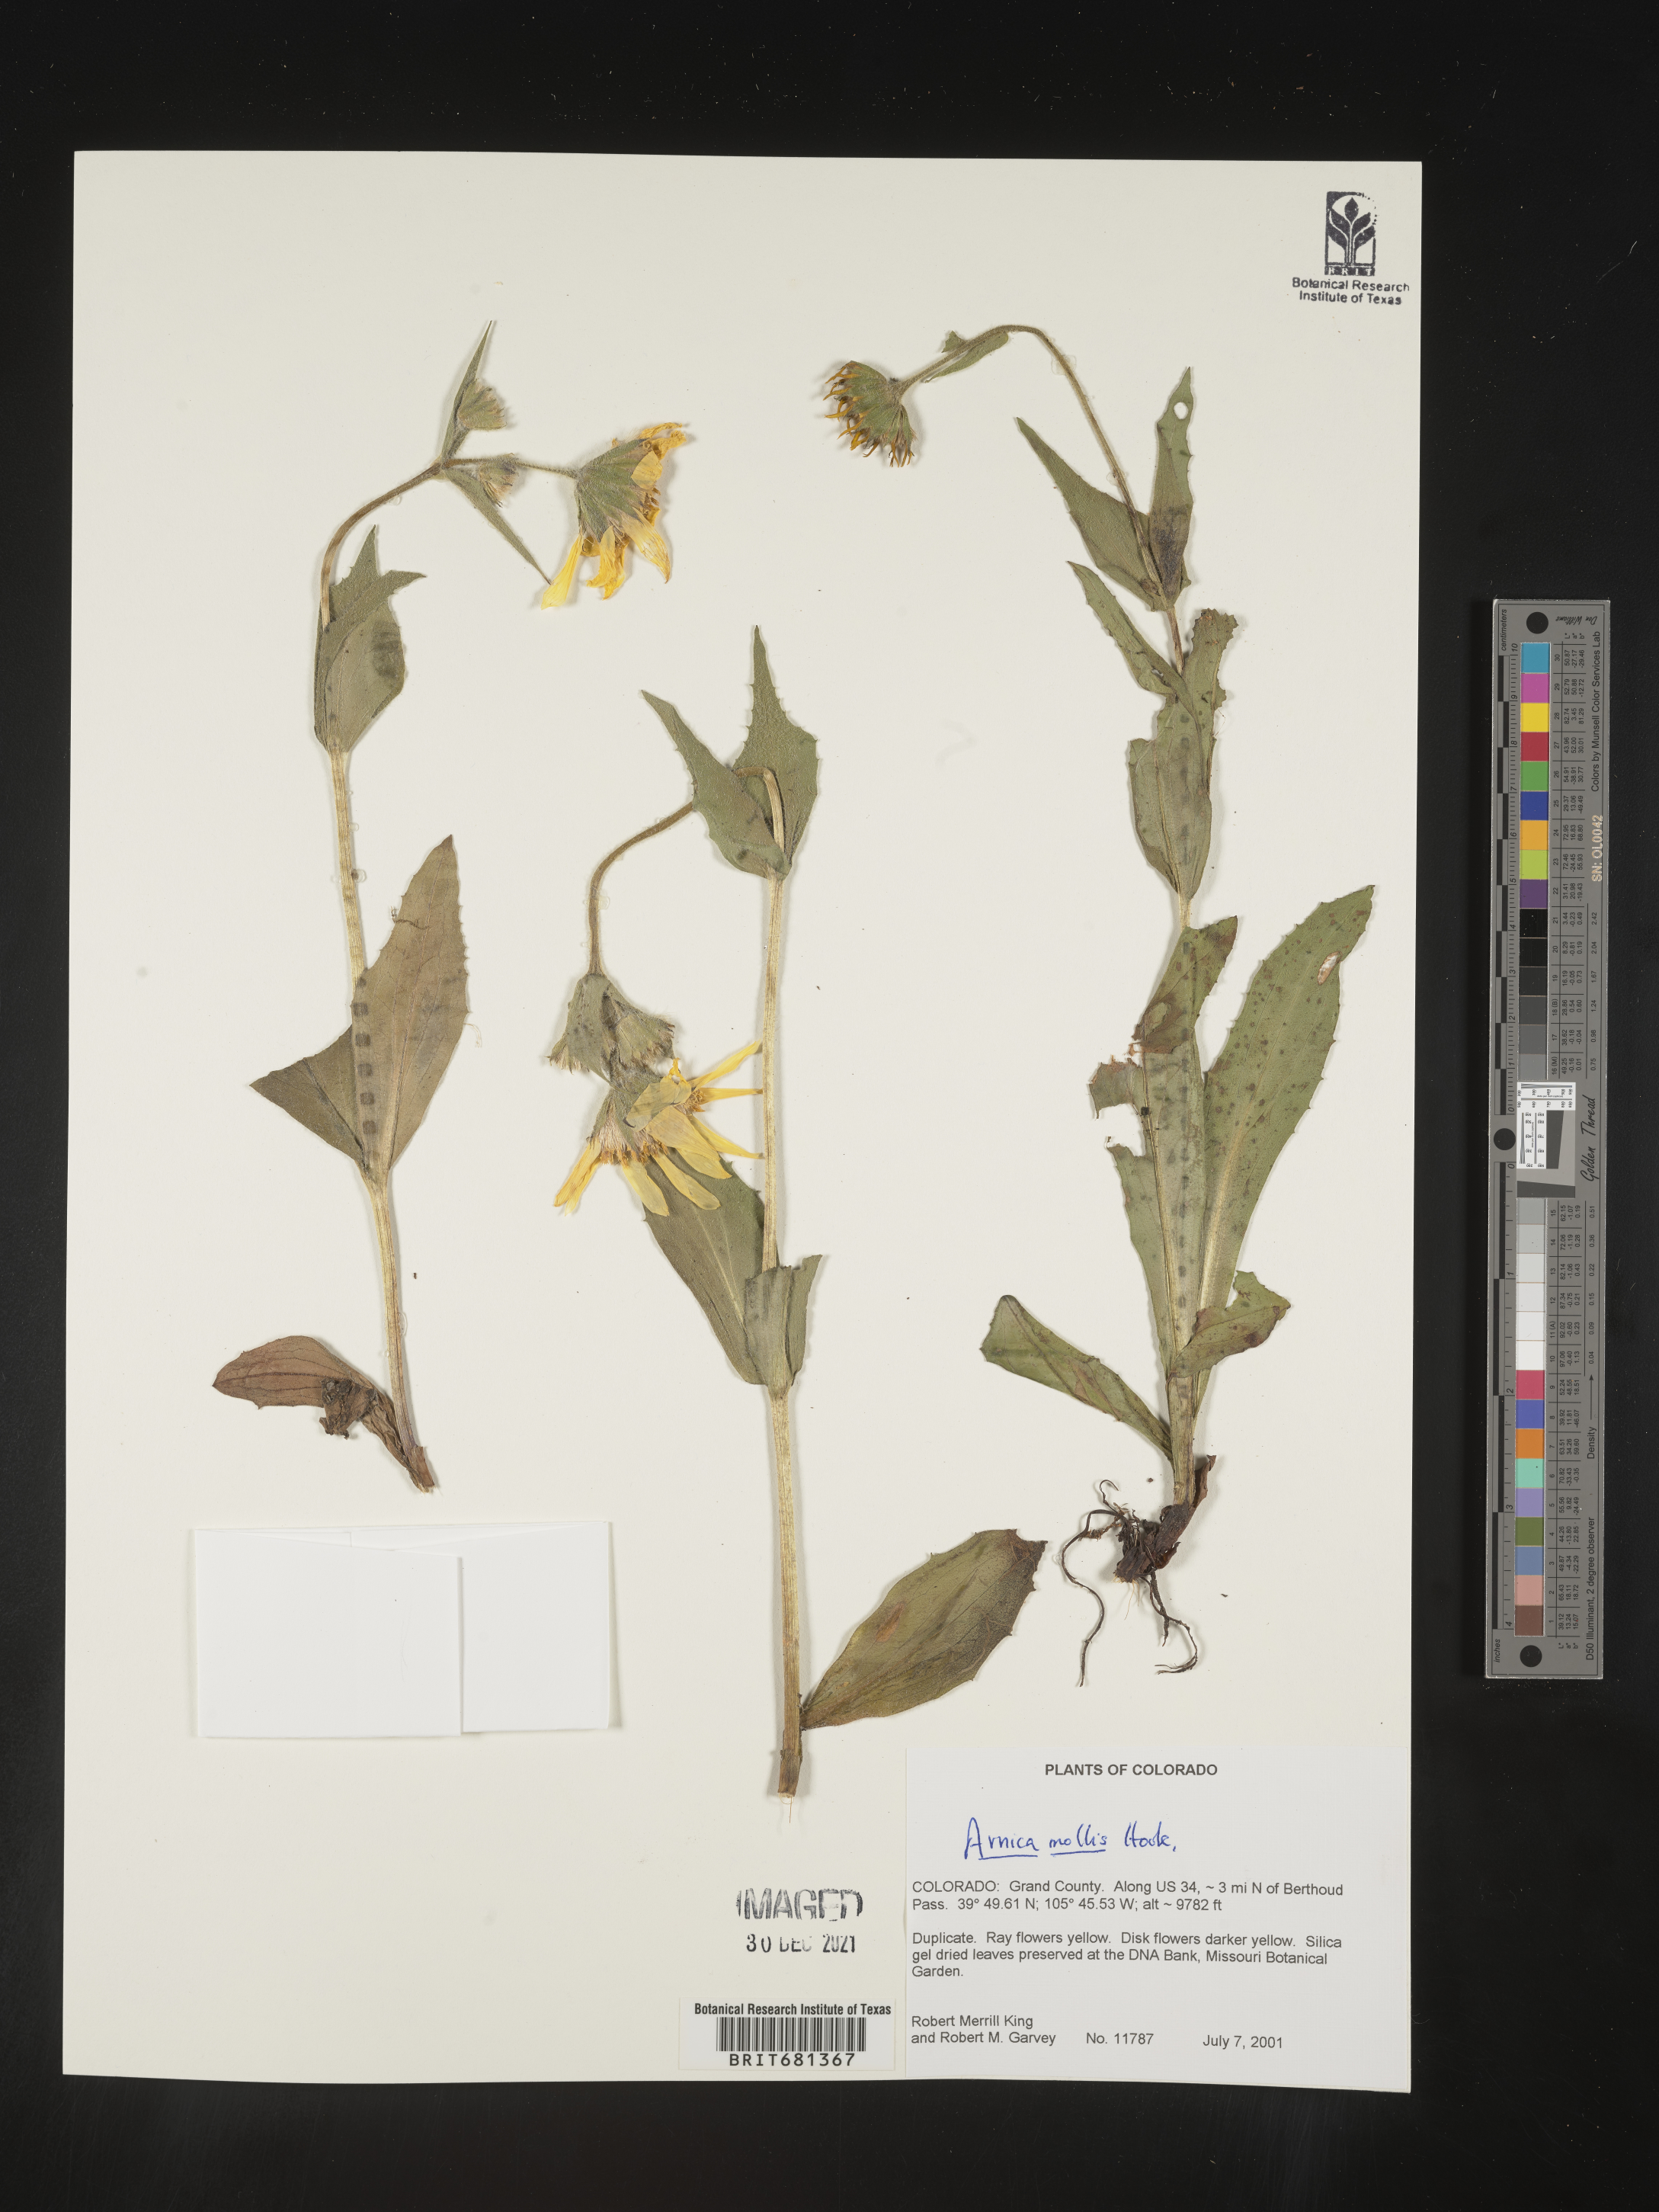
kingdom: Plantae
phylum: Tracheophyta
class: Magnoliopsida
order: Asterales
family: Asteraceae
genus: Arnica
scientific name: Arnica mollis
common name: Hairy arnica
